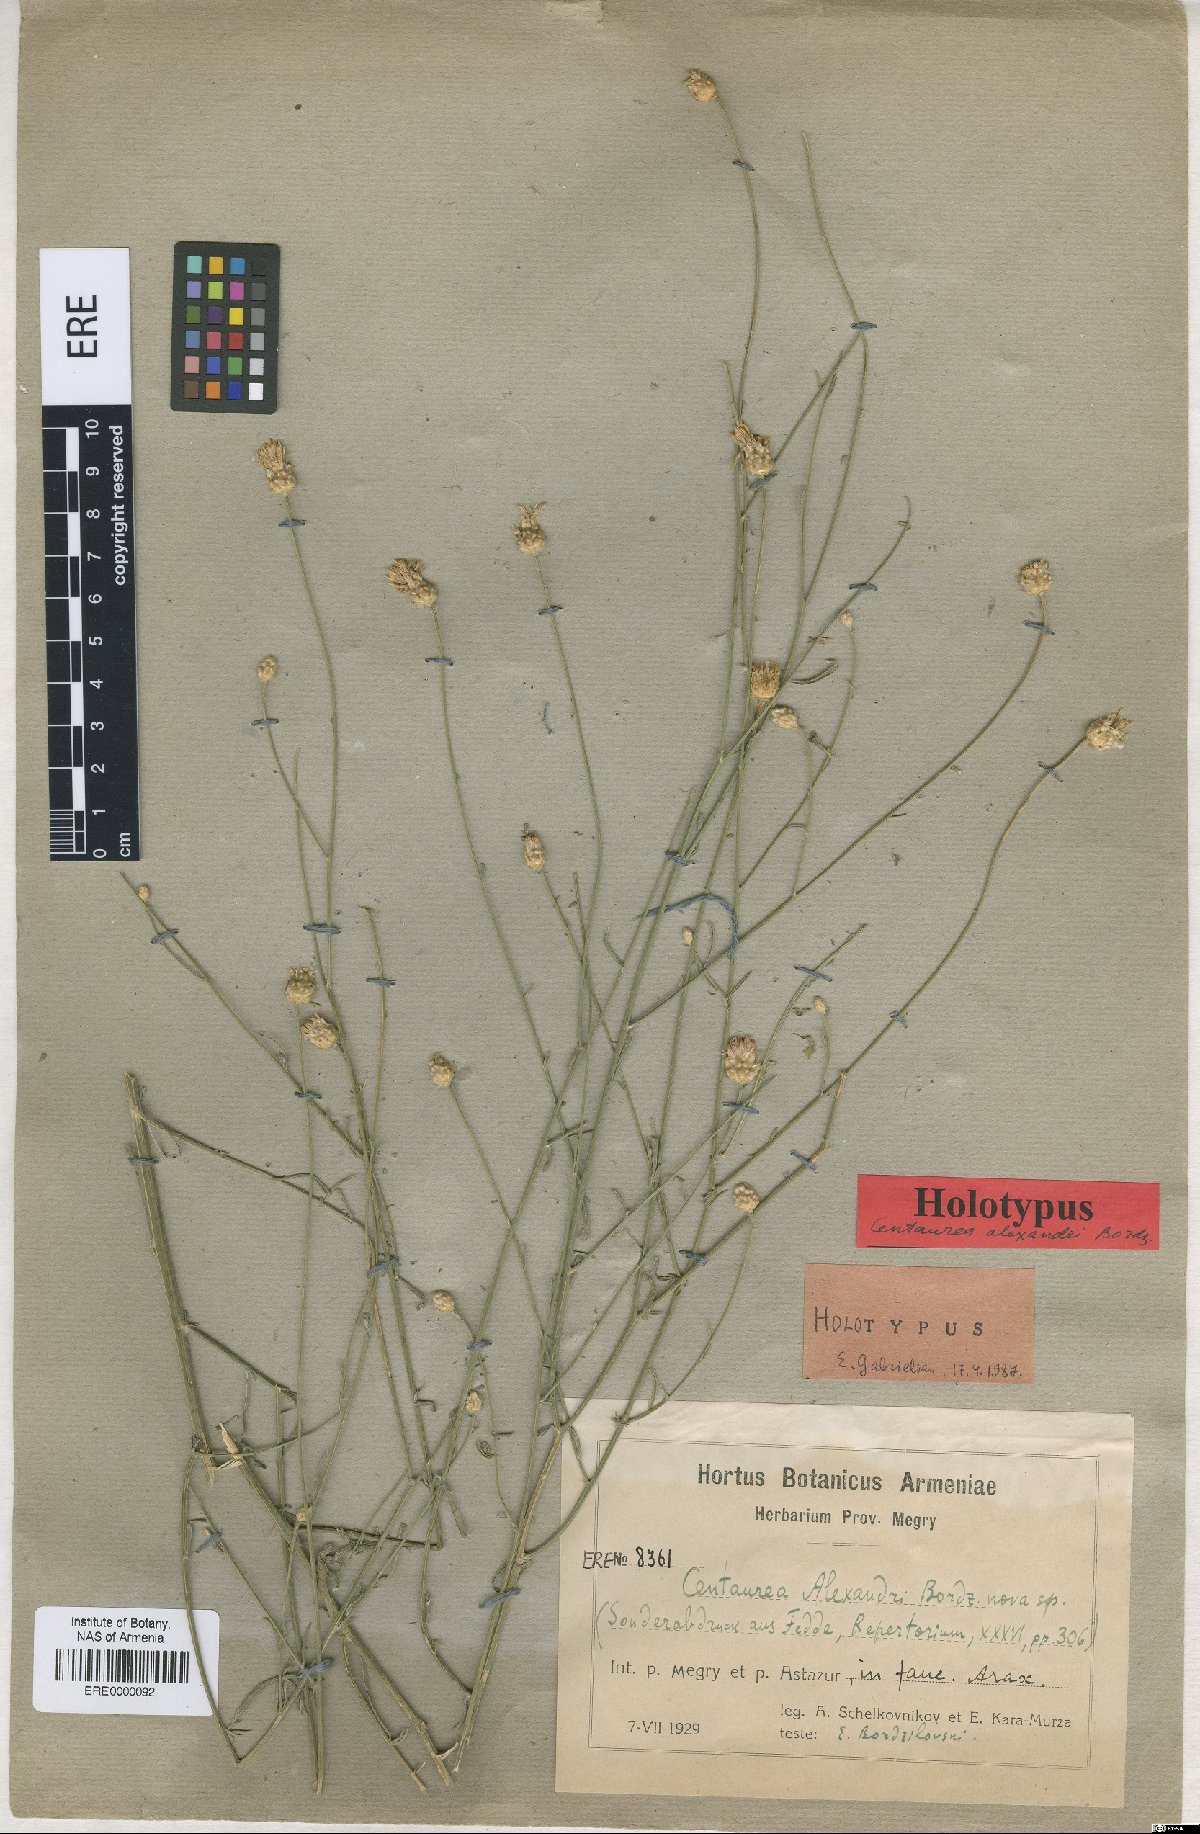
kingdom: Plantae
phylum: Tracheophyta
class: Magnoliopsida
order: Asterales
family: Asteraceae
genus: Centaurea
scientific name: Centaurea transcaucasica
